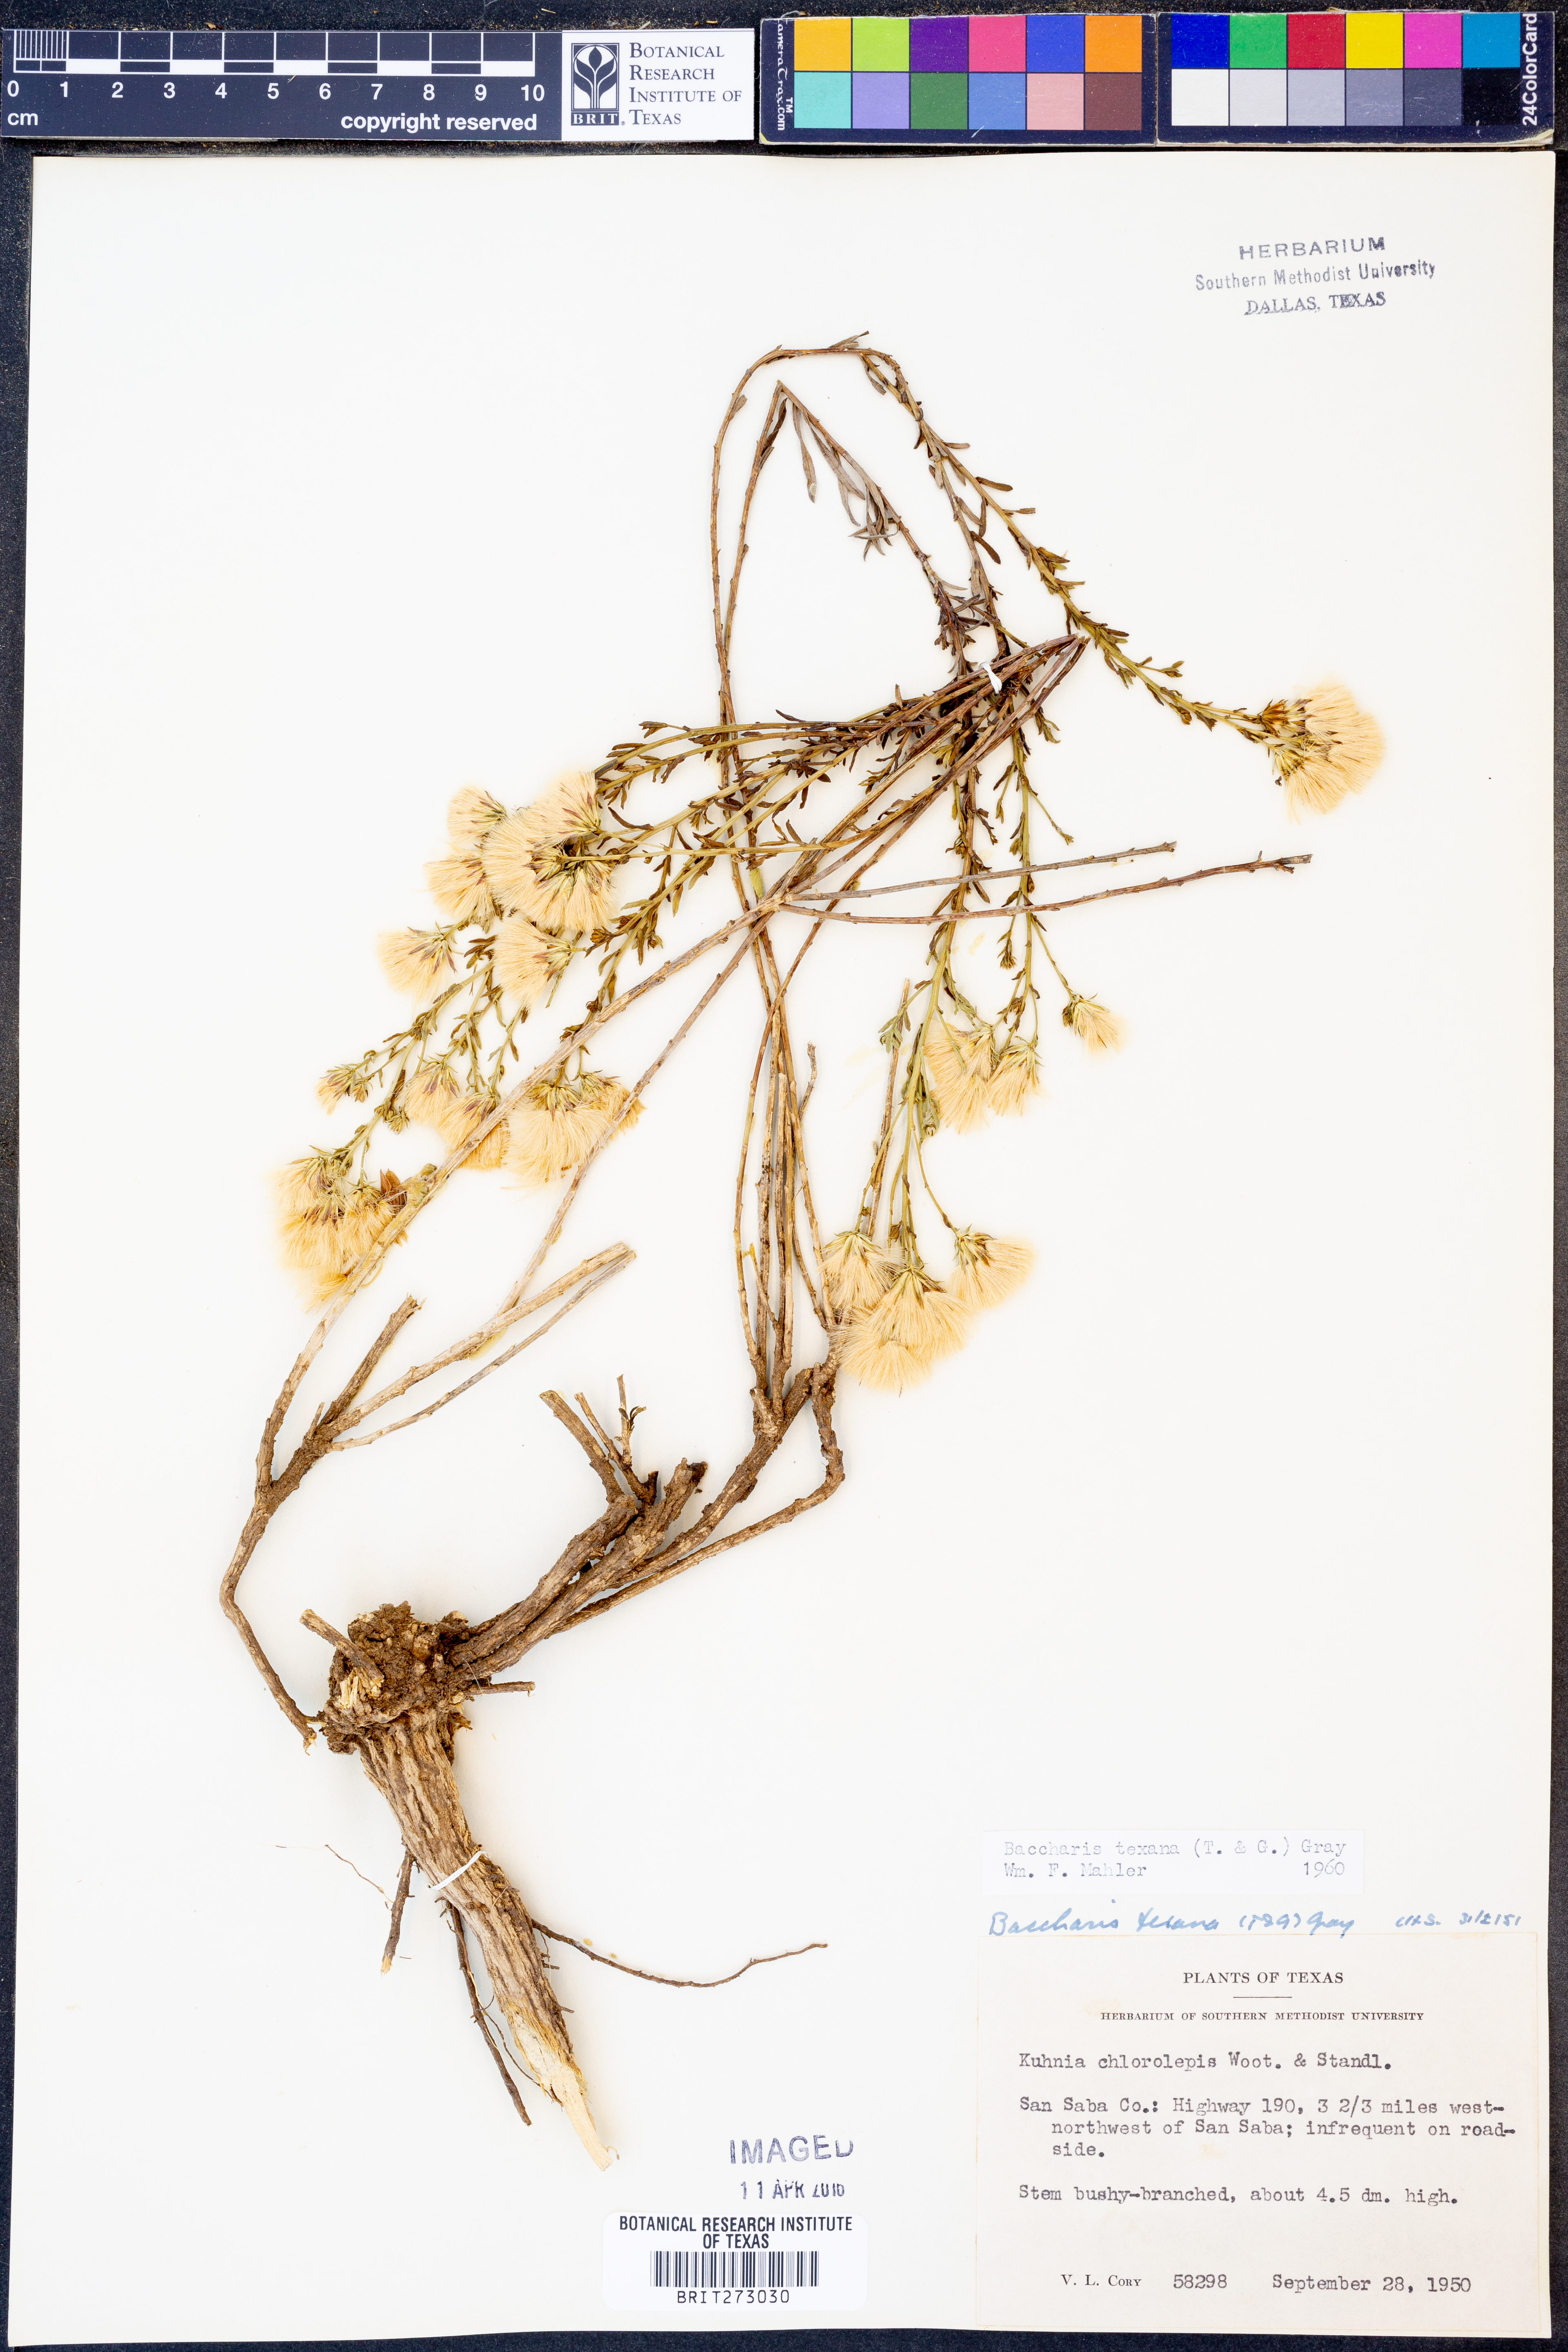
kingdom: Plantae
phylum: Tracheophyta
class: Magnoliopsida
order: Asterales
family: Asteraceae
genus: Baccharis
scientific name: Baccharis texana
